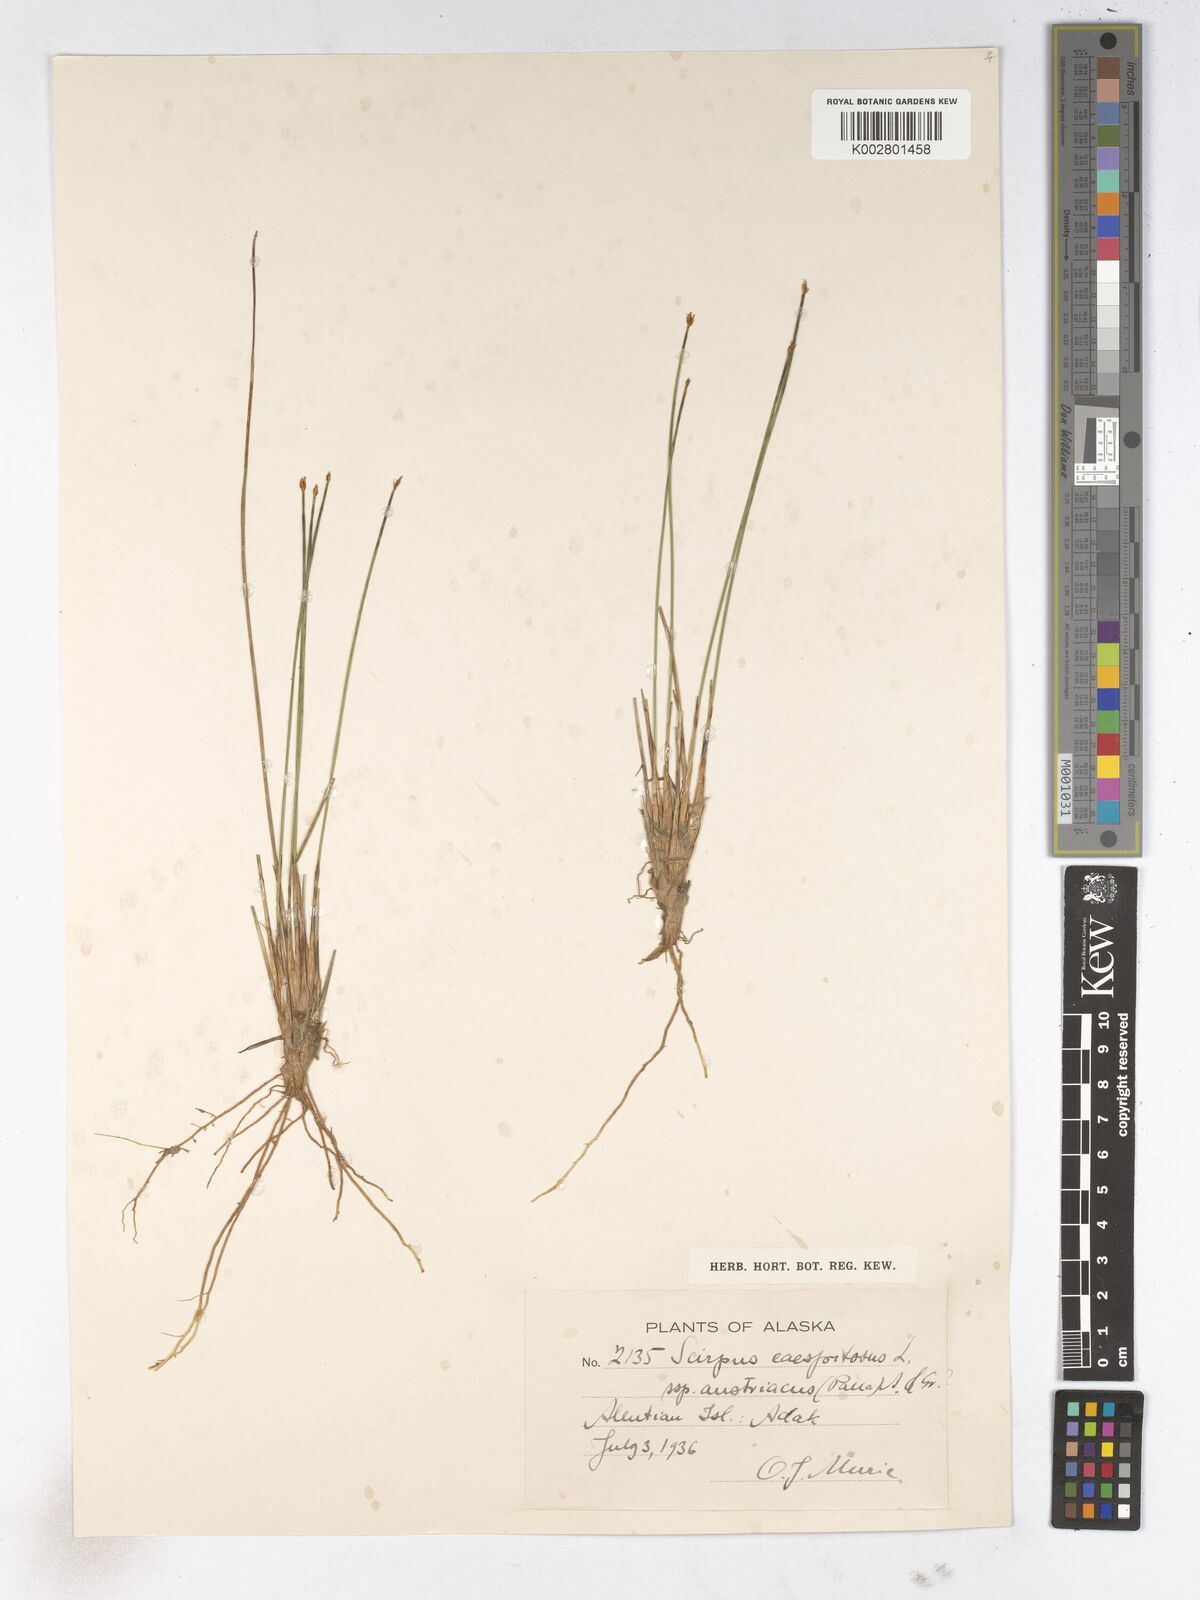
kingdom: Plantae
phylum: Tracheophyta
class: Liliopsida
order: Poales
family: Cyperaceae
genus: Trichophorum
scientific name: Trichophorum cespitosum
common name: Cespitose bulrush
